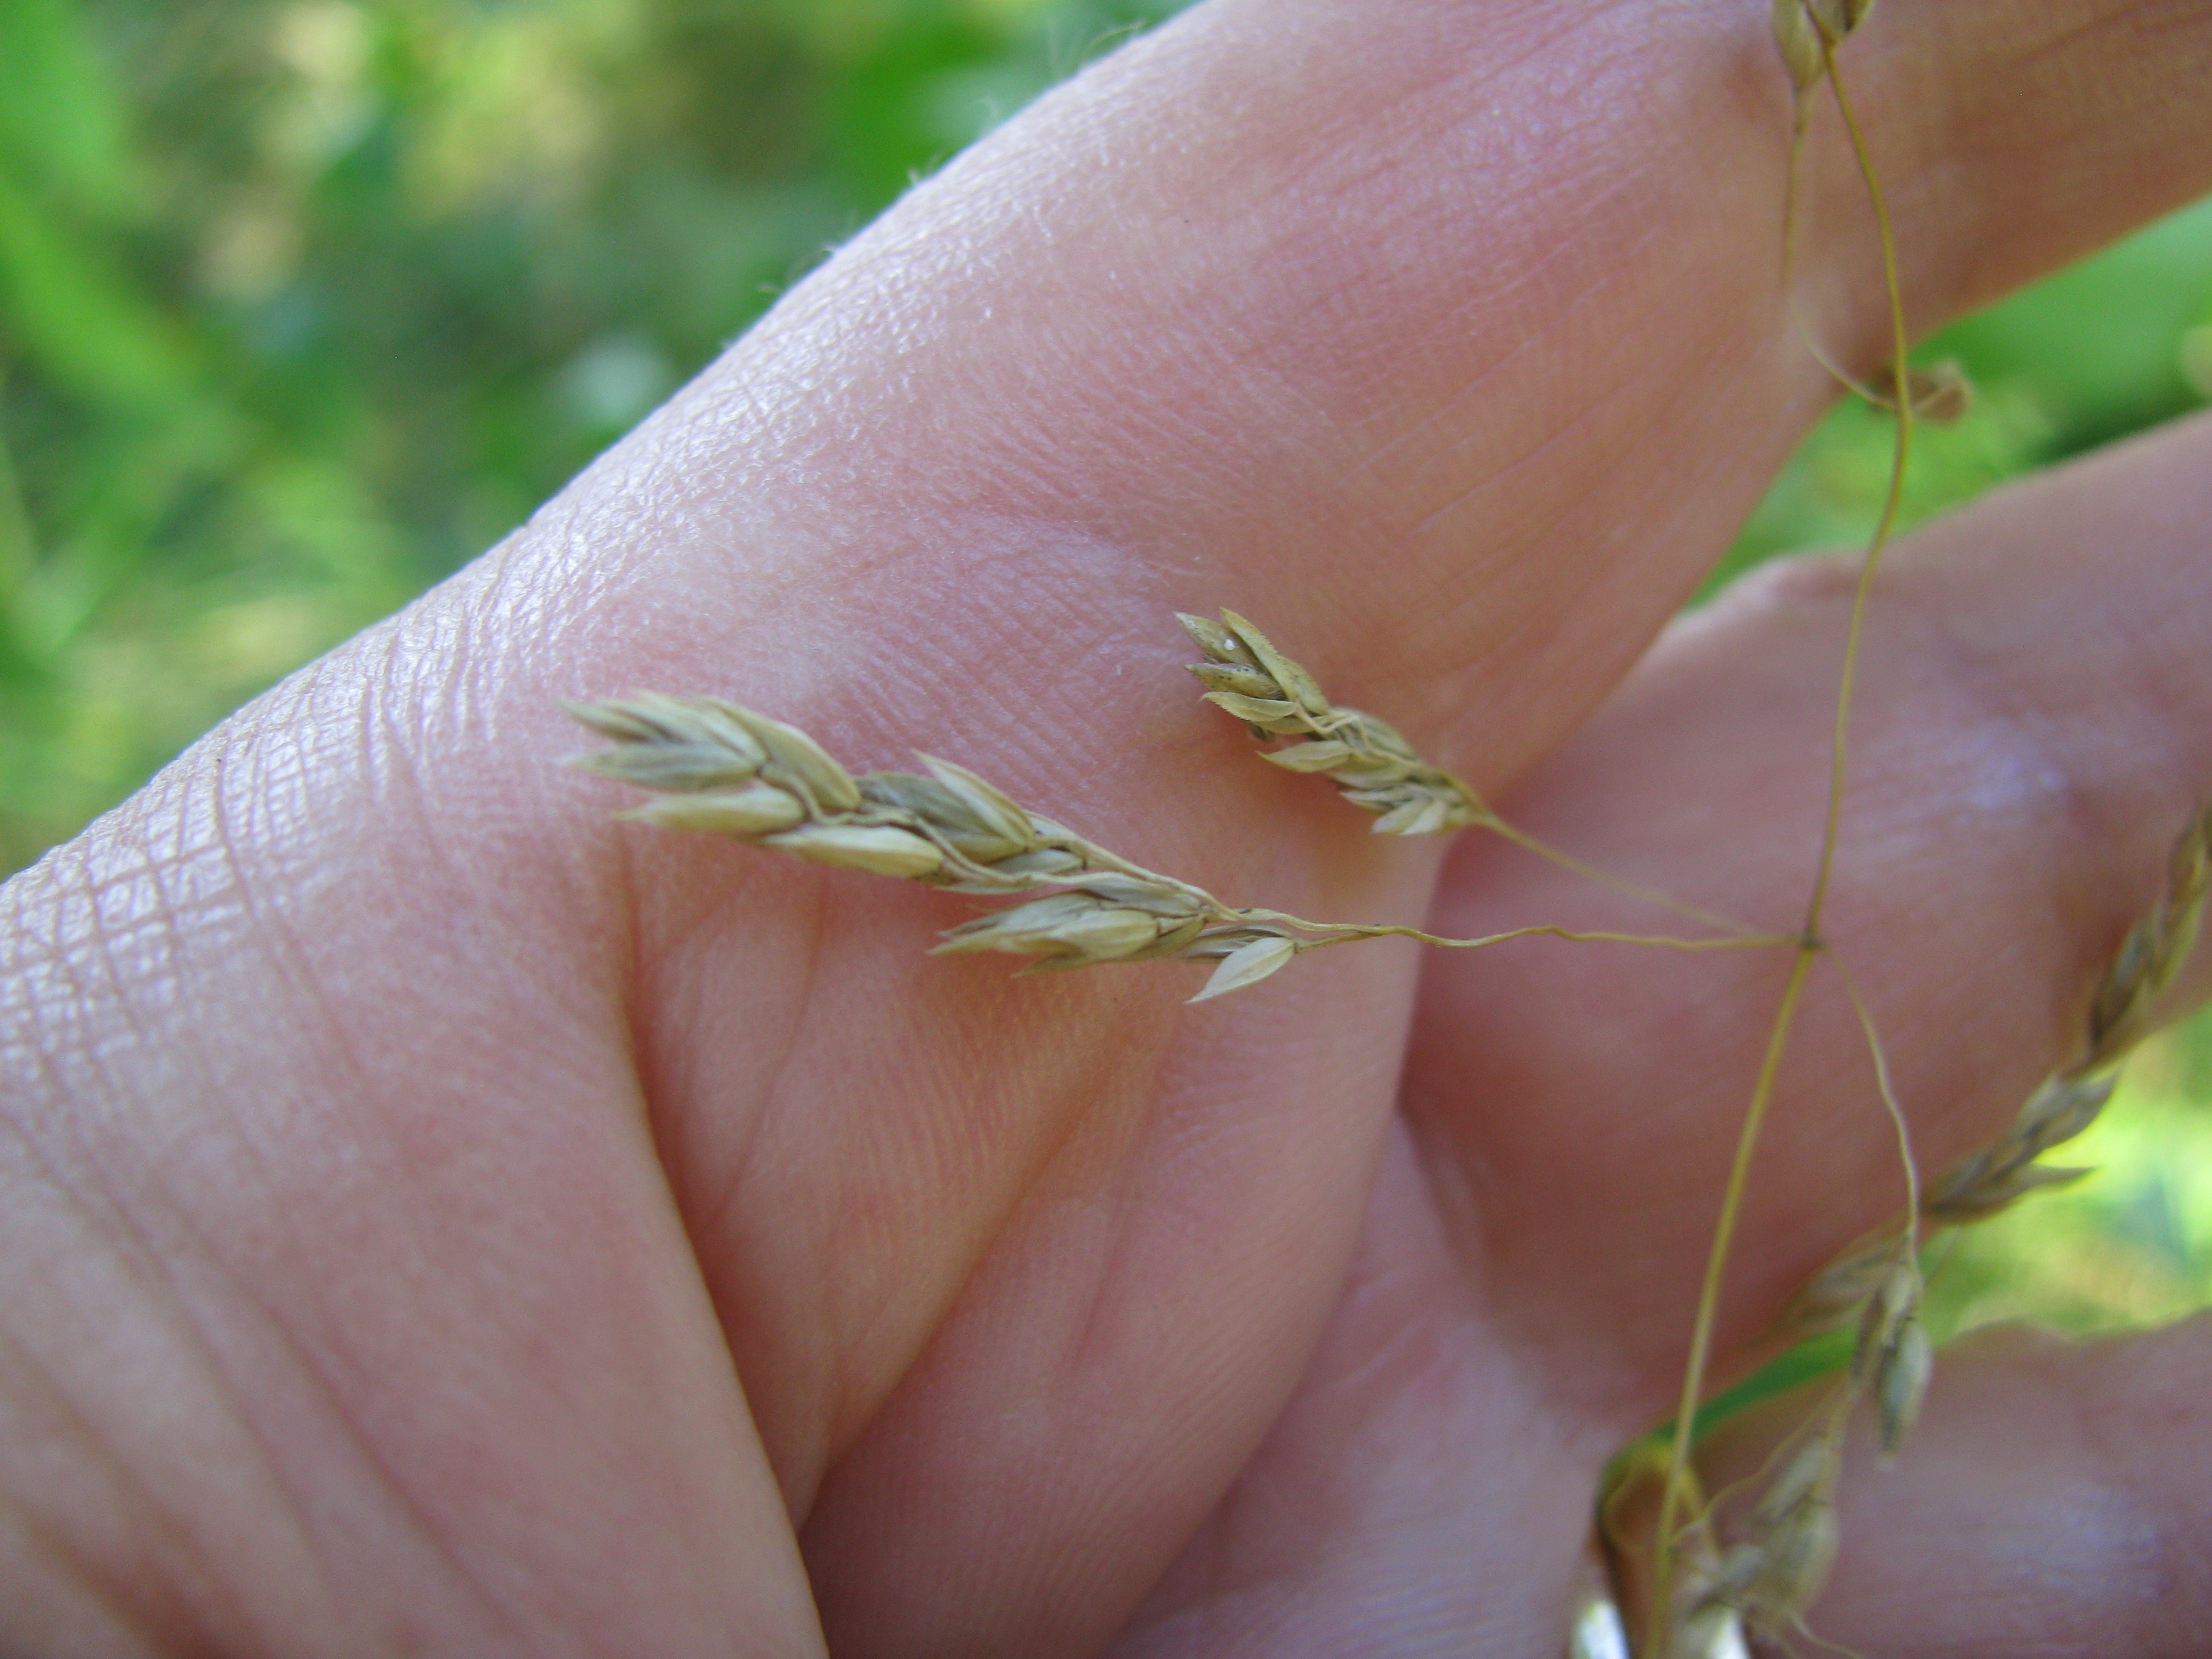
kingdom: Plantae
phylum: Tracheophyta
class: Liliopsida
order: Poales
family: Poaceae
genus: Poa
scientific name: Poa pratensis
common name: Kentucky bluegrass
